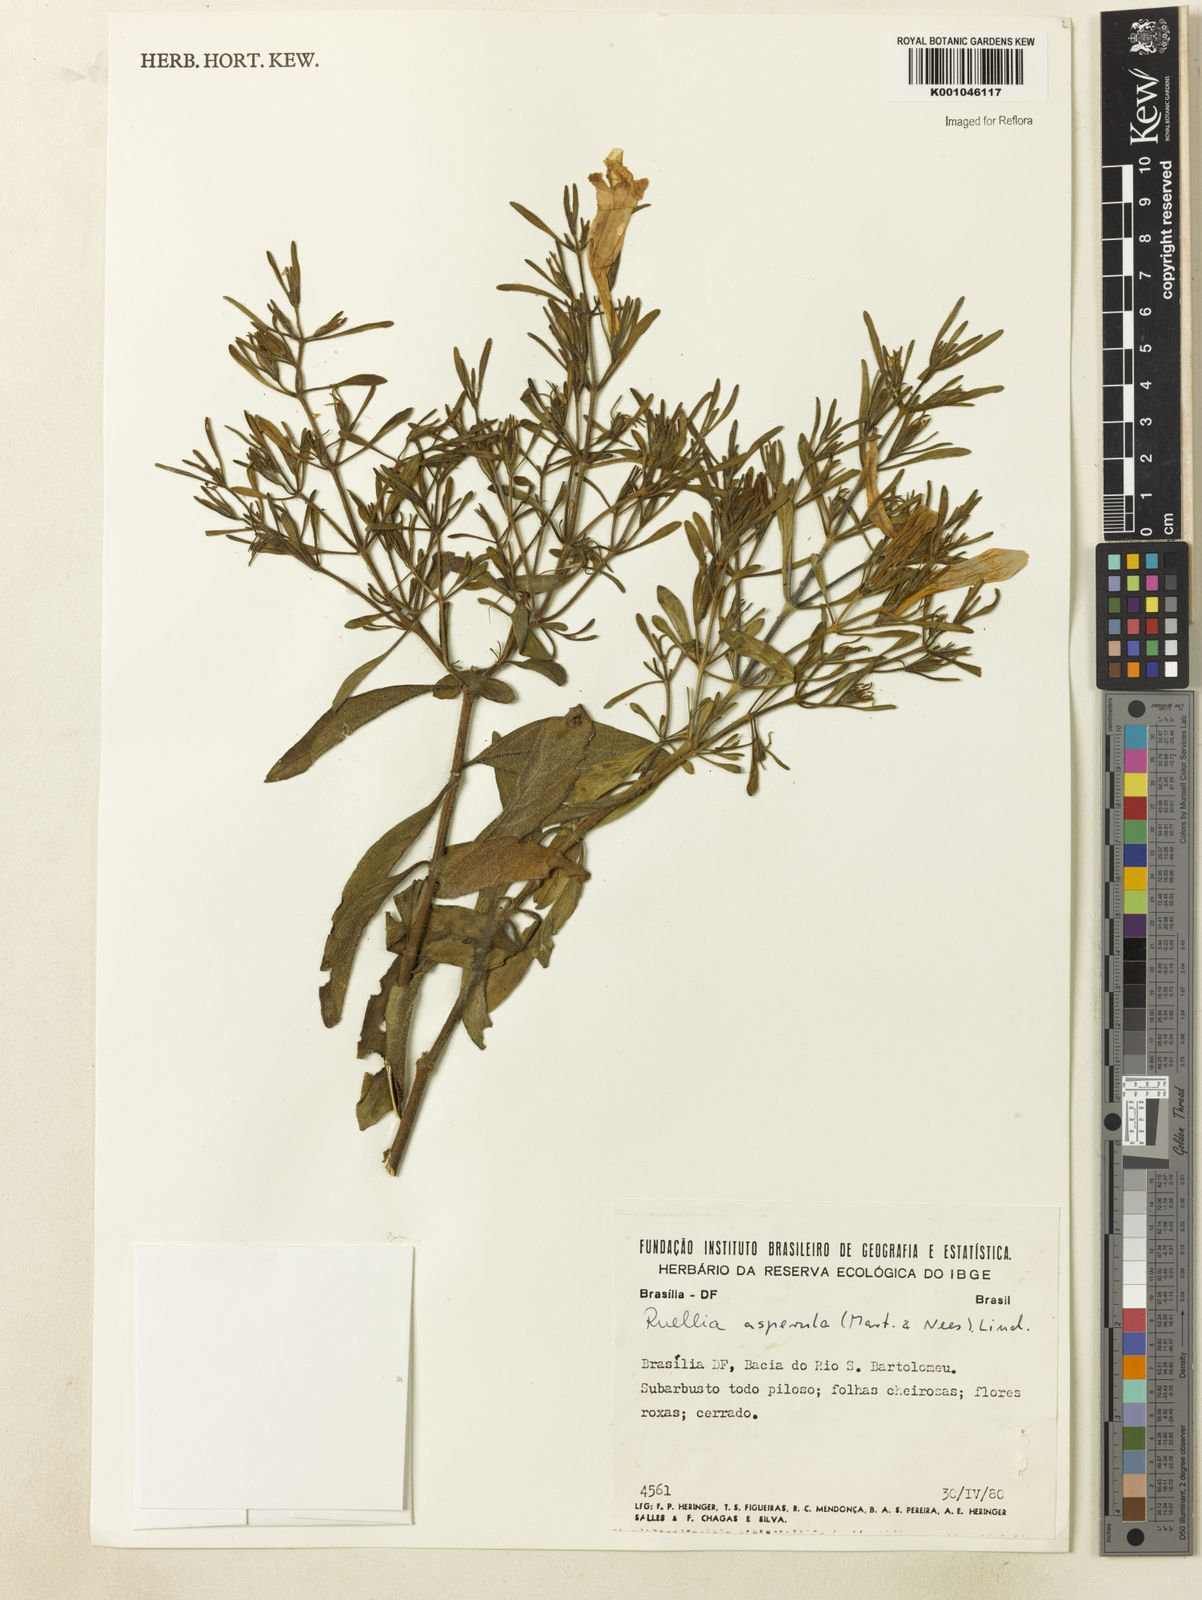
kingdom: Plantae
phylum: Tracheophyta
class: Magnoliopsida
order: Lamiales
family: Acanthaceae
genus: Ruellia
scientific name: Ruellia
